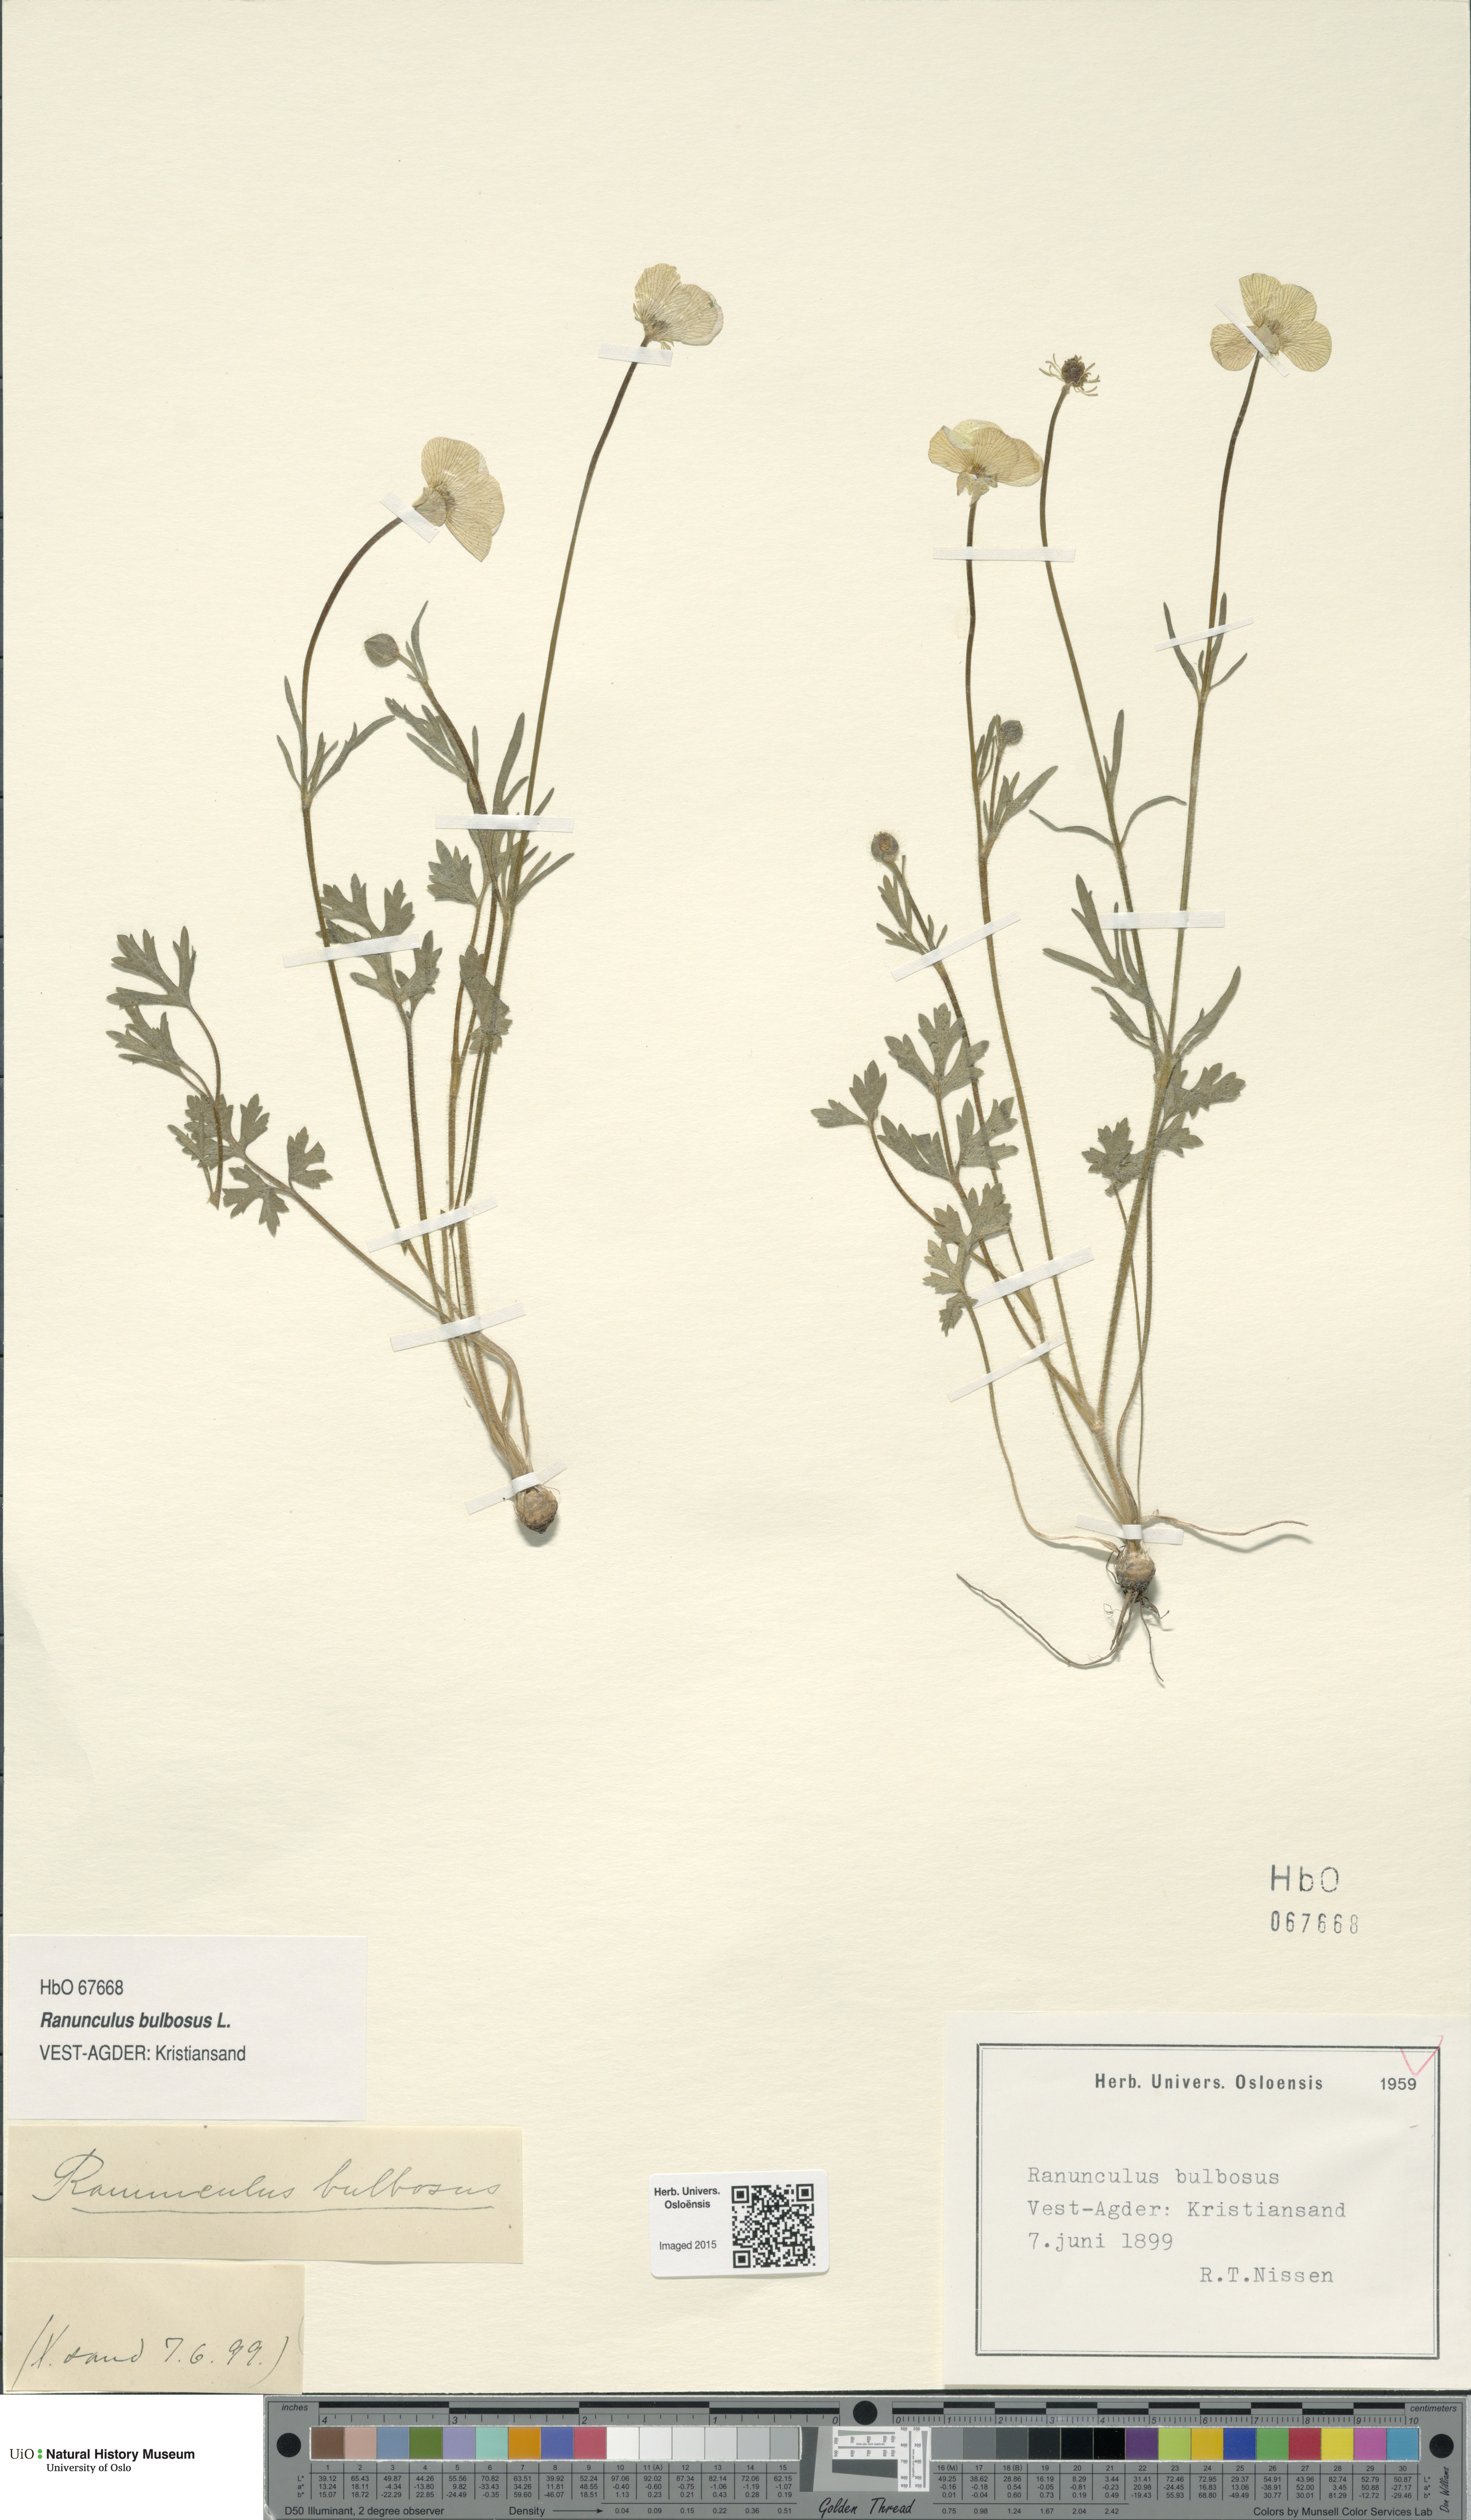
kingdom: Plantae
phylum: Tracheophyta
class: Magnoliopsida
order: Ranunculales
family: Ranunculaceae
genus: Ranunculus
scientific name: Ranunculus bulbosus
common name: Bulbous buttercup
